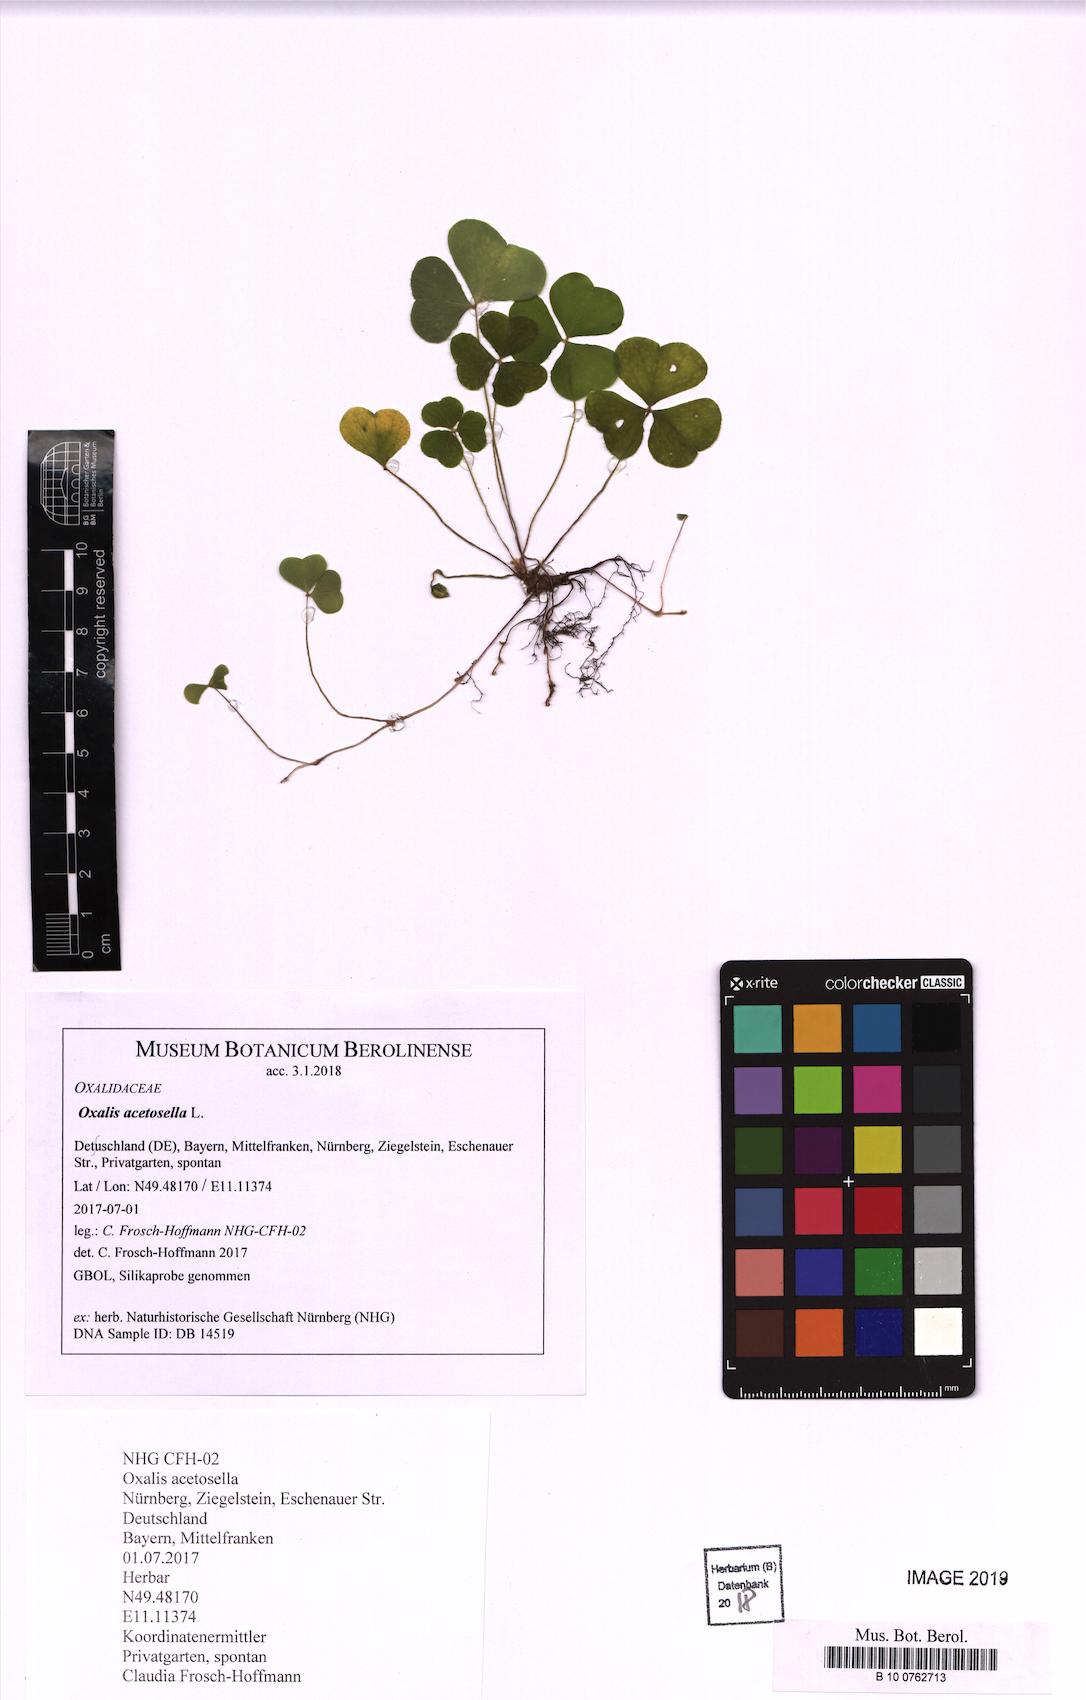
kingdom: Plantae
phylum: Tracheophyta
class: Magnoliopsida
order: Oxalidales
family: Oxalidaceae
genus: Oxalis
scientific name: Oxalis acetosella
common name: Wood-sorrel
